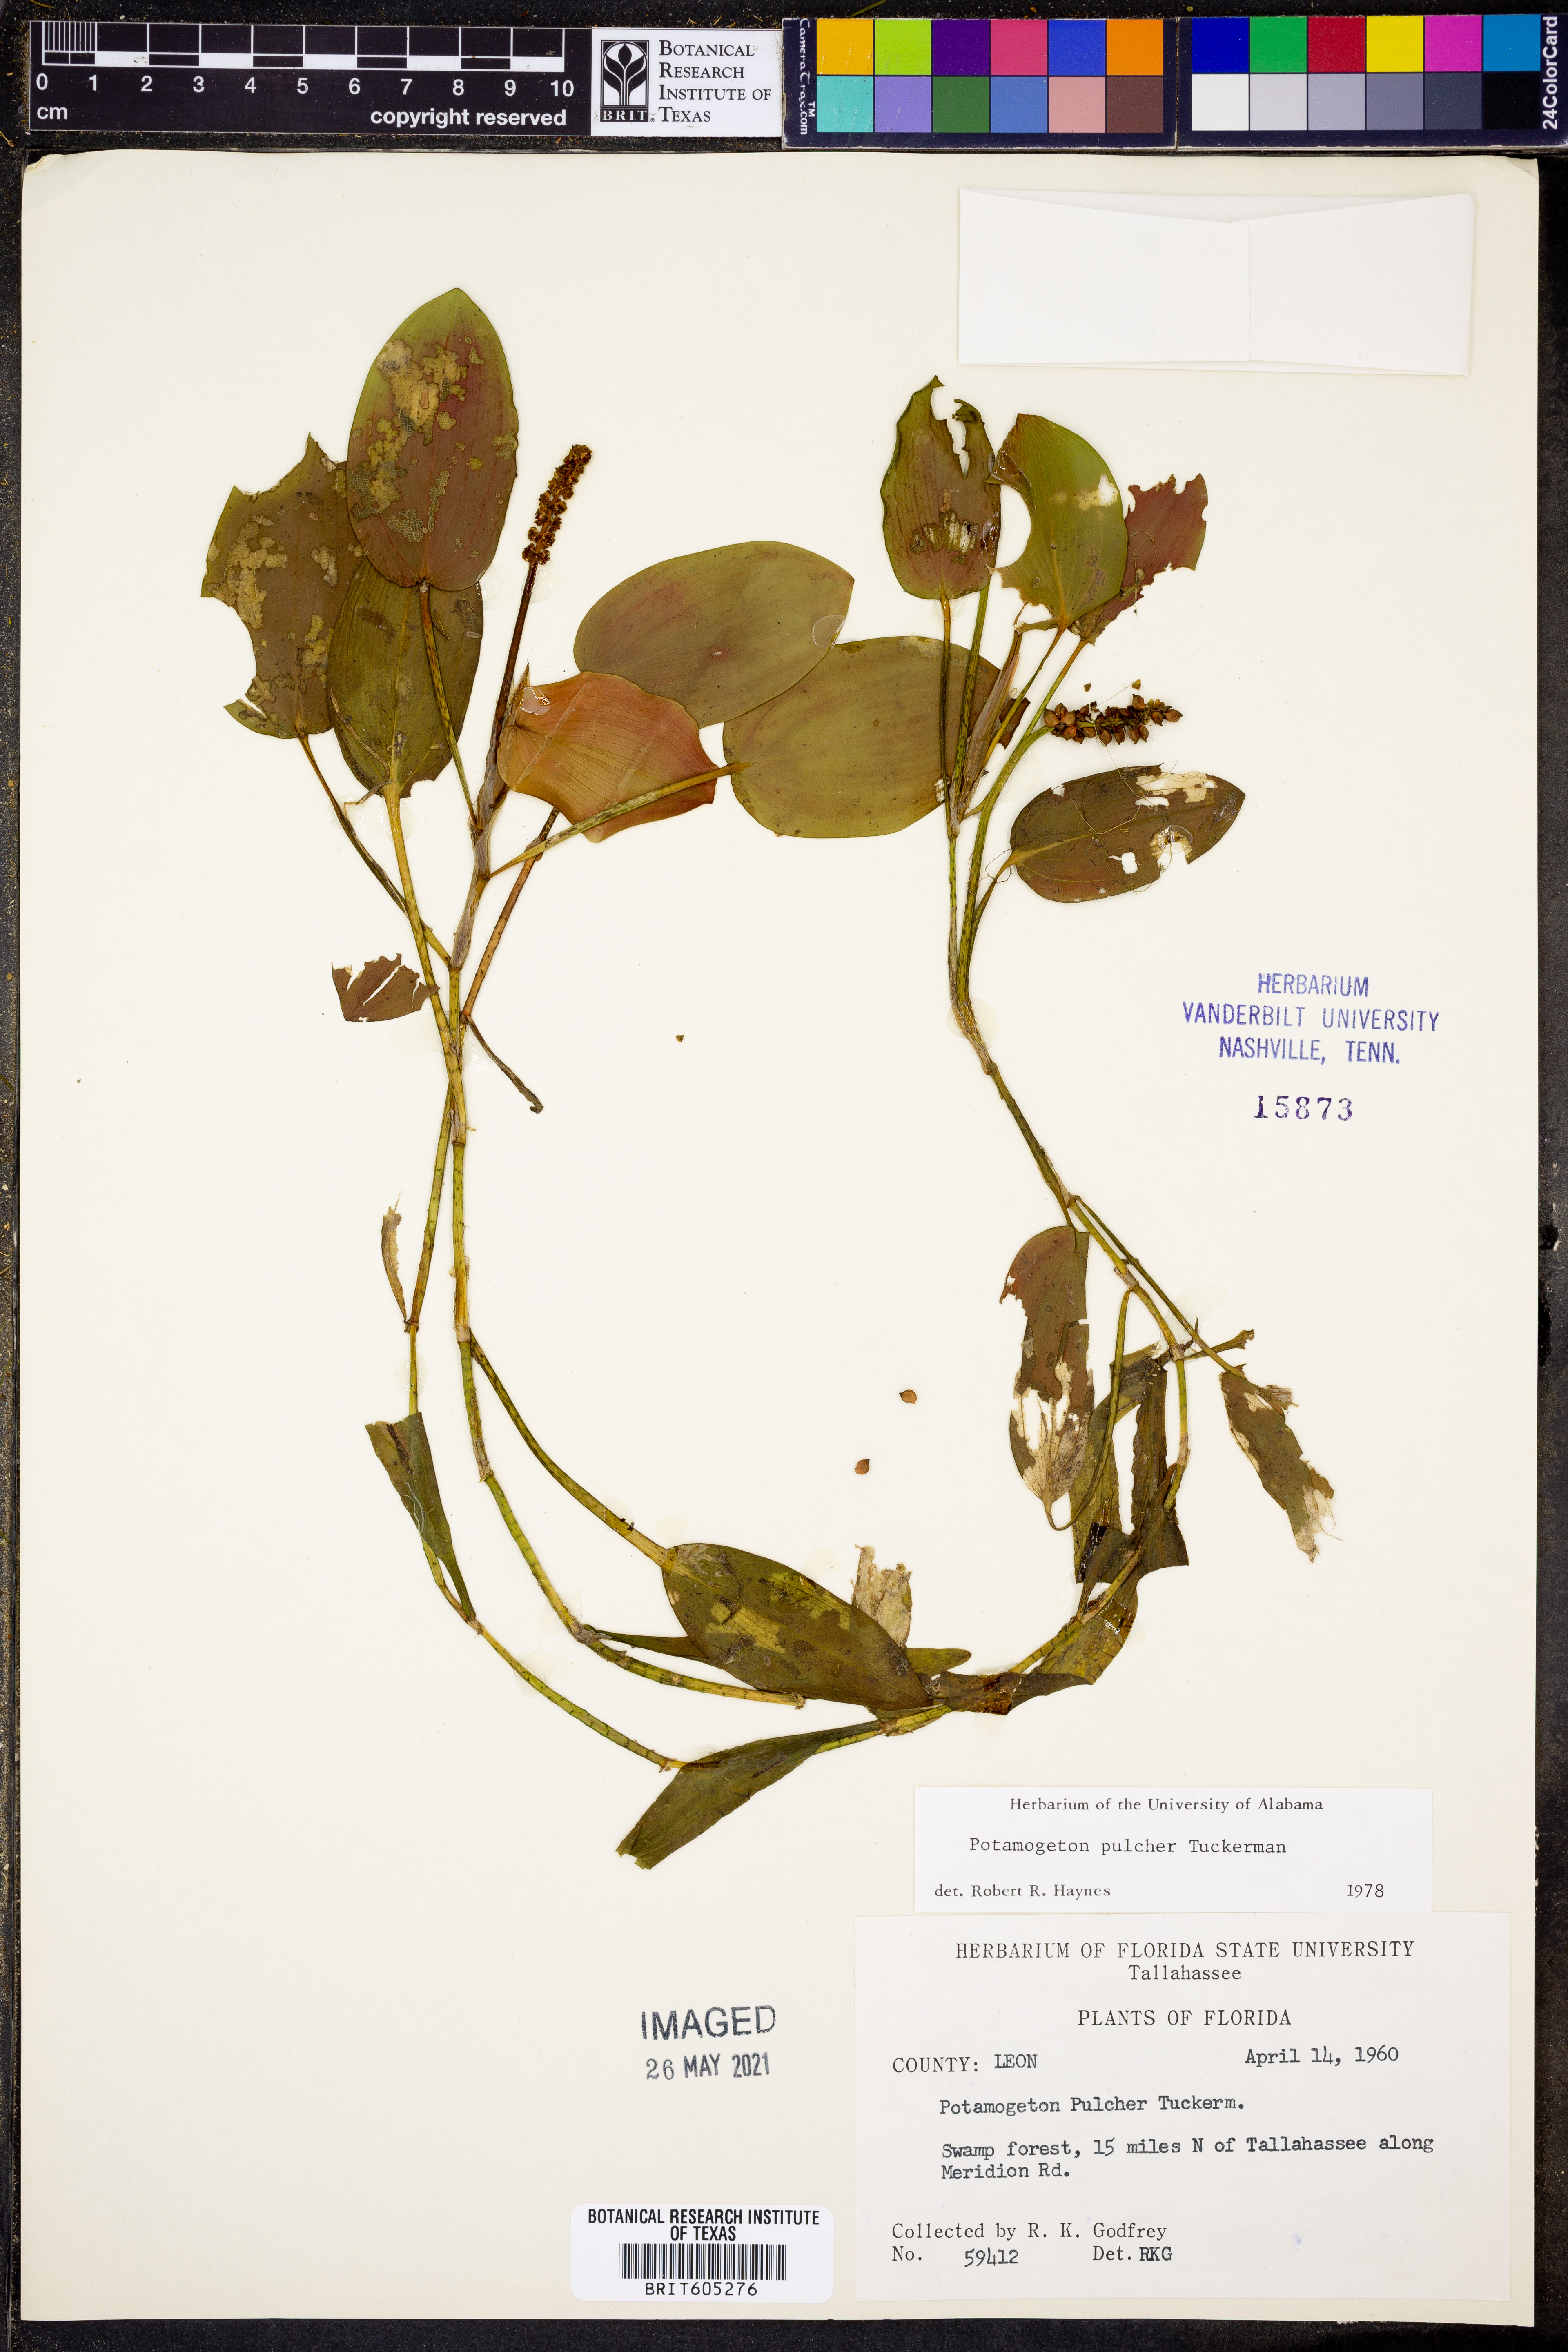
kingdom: Plantae
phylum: Tracheophyta
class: Liliopsida
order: Alismatales
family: Potamogetonaceae
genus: Potamogeton
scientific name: Potamogeton pulcher
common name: Heart-leaved pondweed
